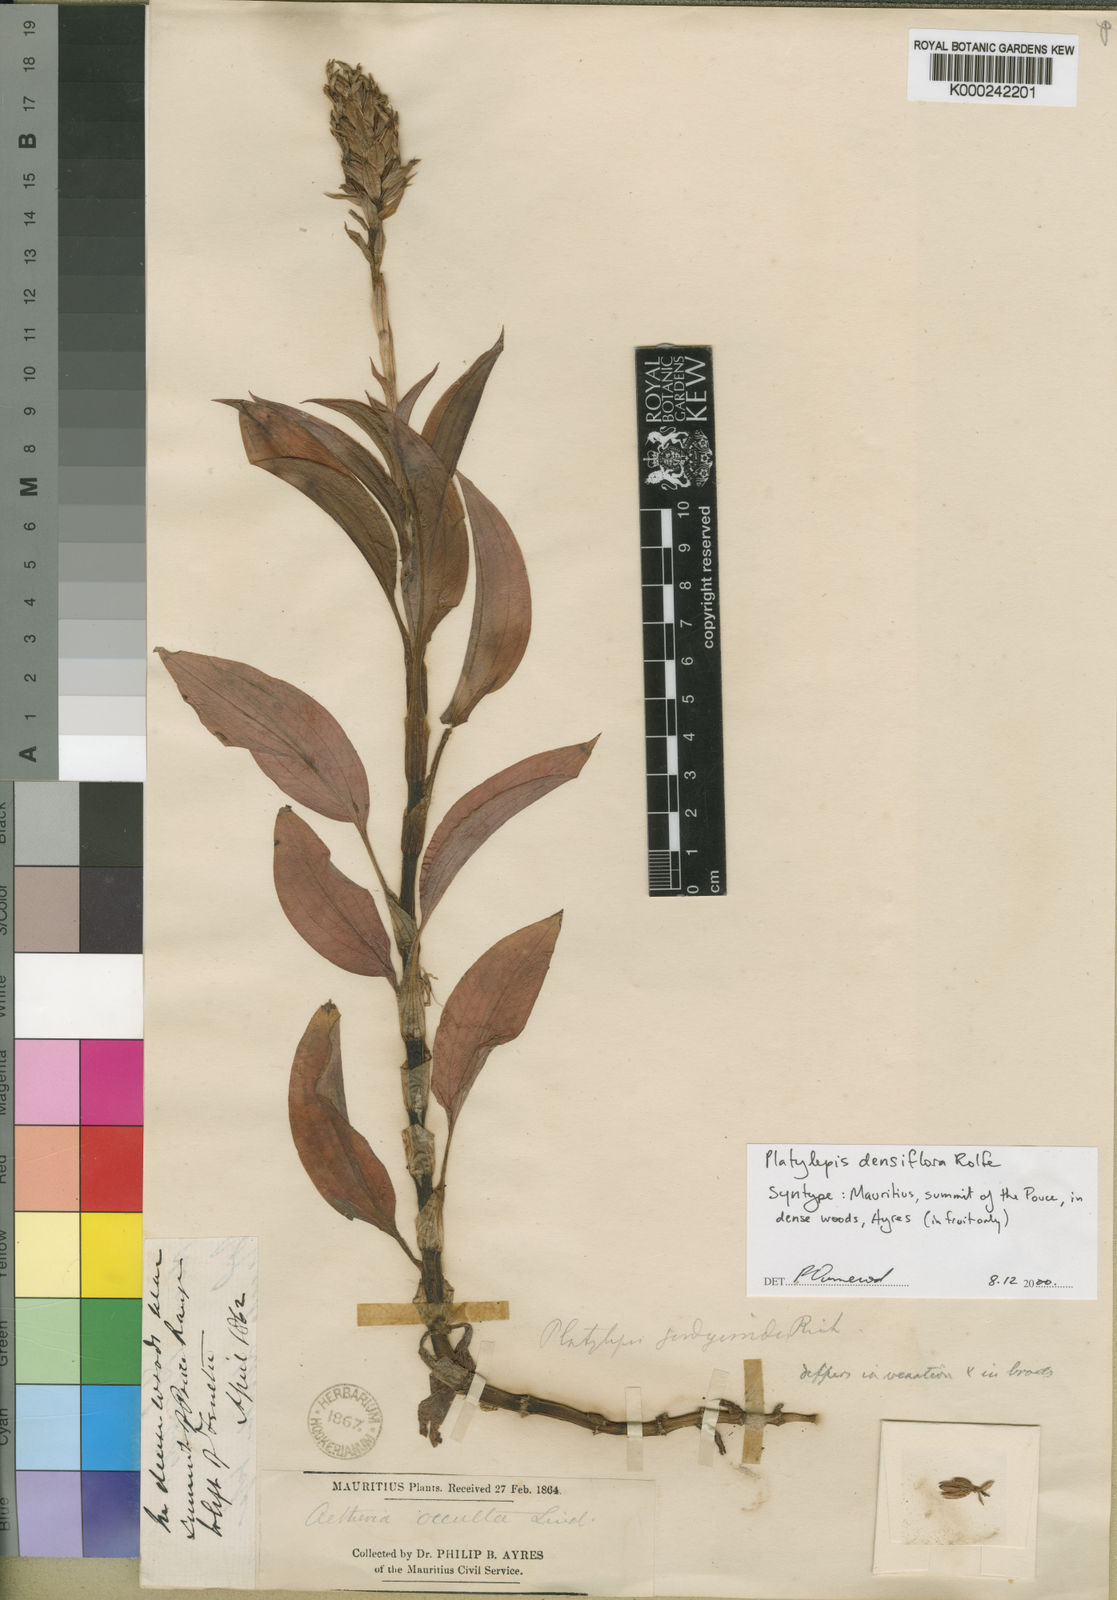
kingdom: Plantae
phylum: Tracheophyta
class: Liliopsida
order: Asparagales
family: Orchidaceae
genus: Platylepis
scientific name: Platylepis densiflora
